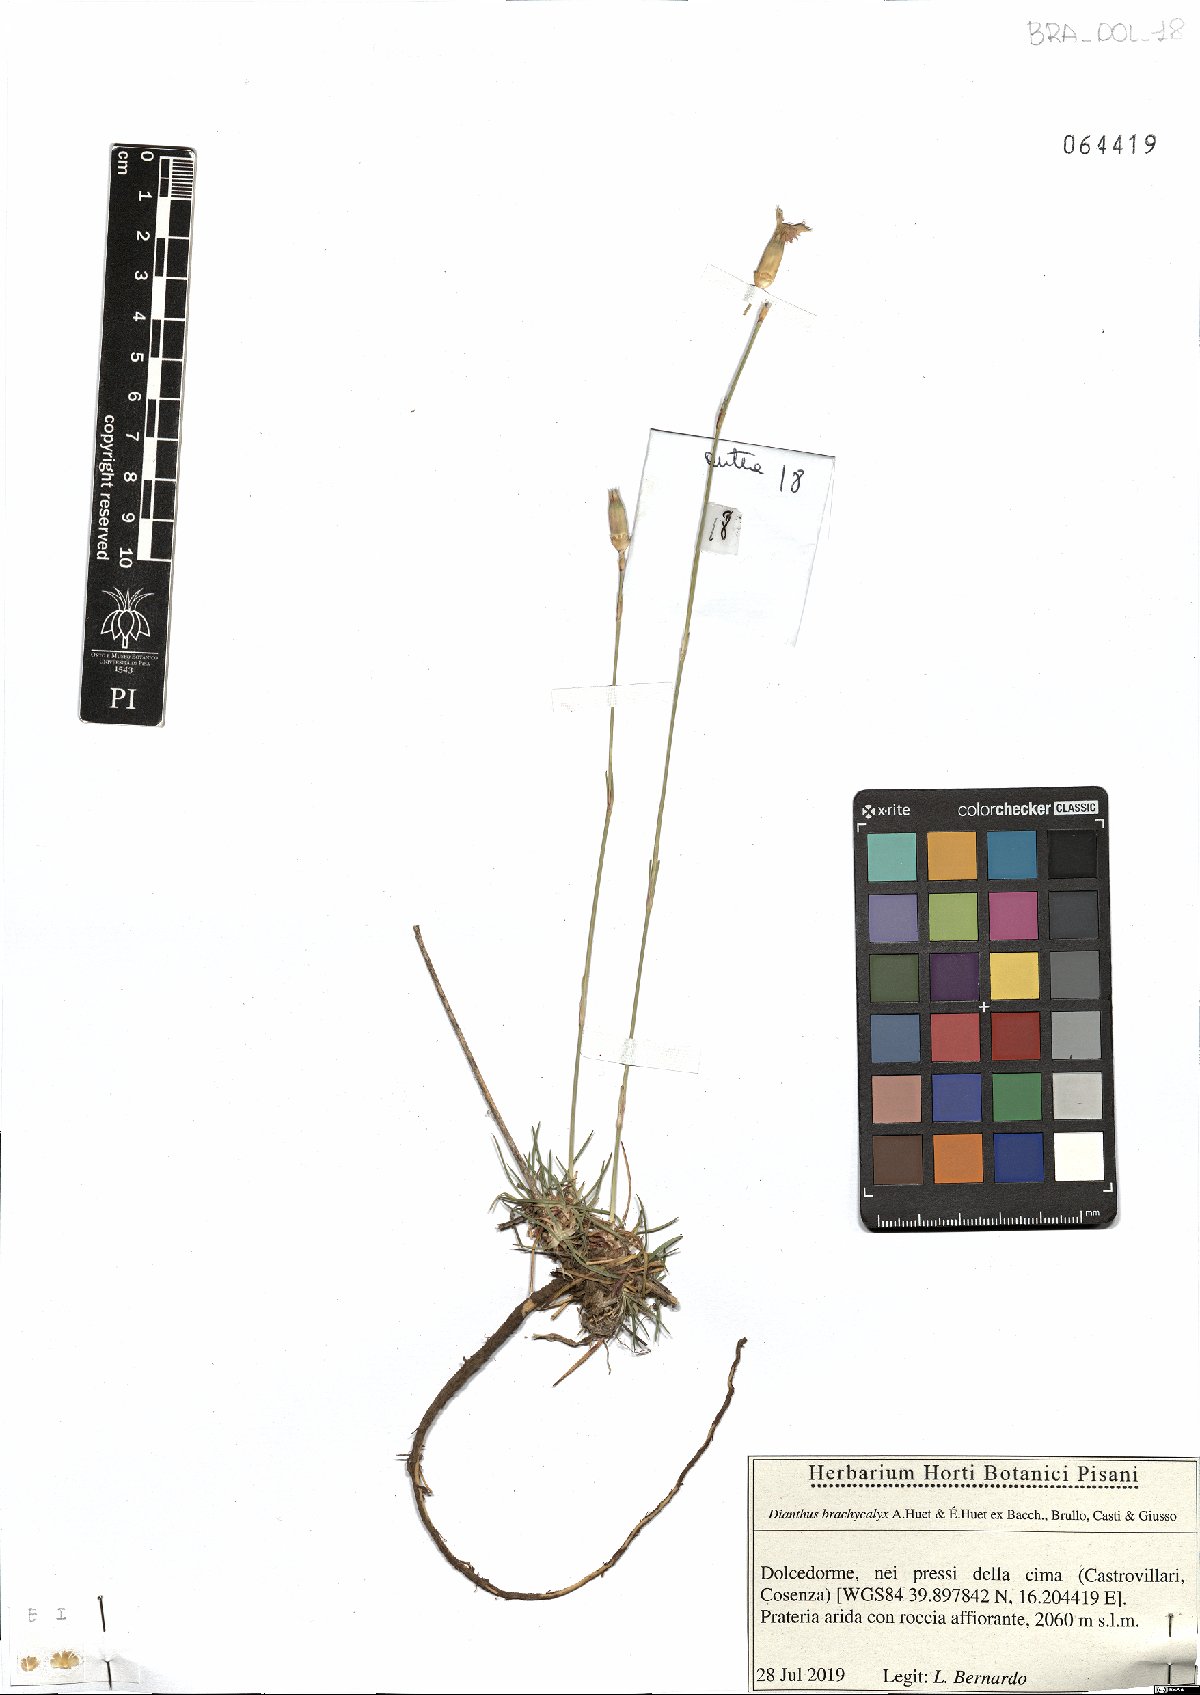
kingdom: Plantae
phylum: Tracheophyta
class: Magnoliopsida
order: Caryophyllales
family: Caryophyllaceae
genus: Dianthus
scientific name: Dianthus brachycalyx
